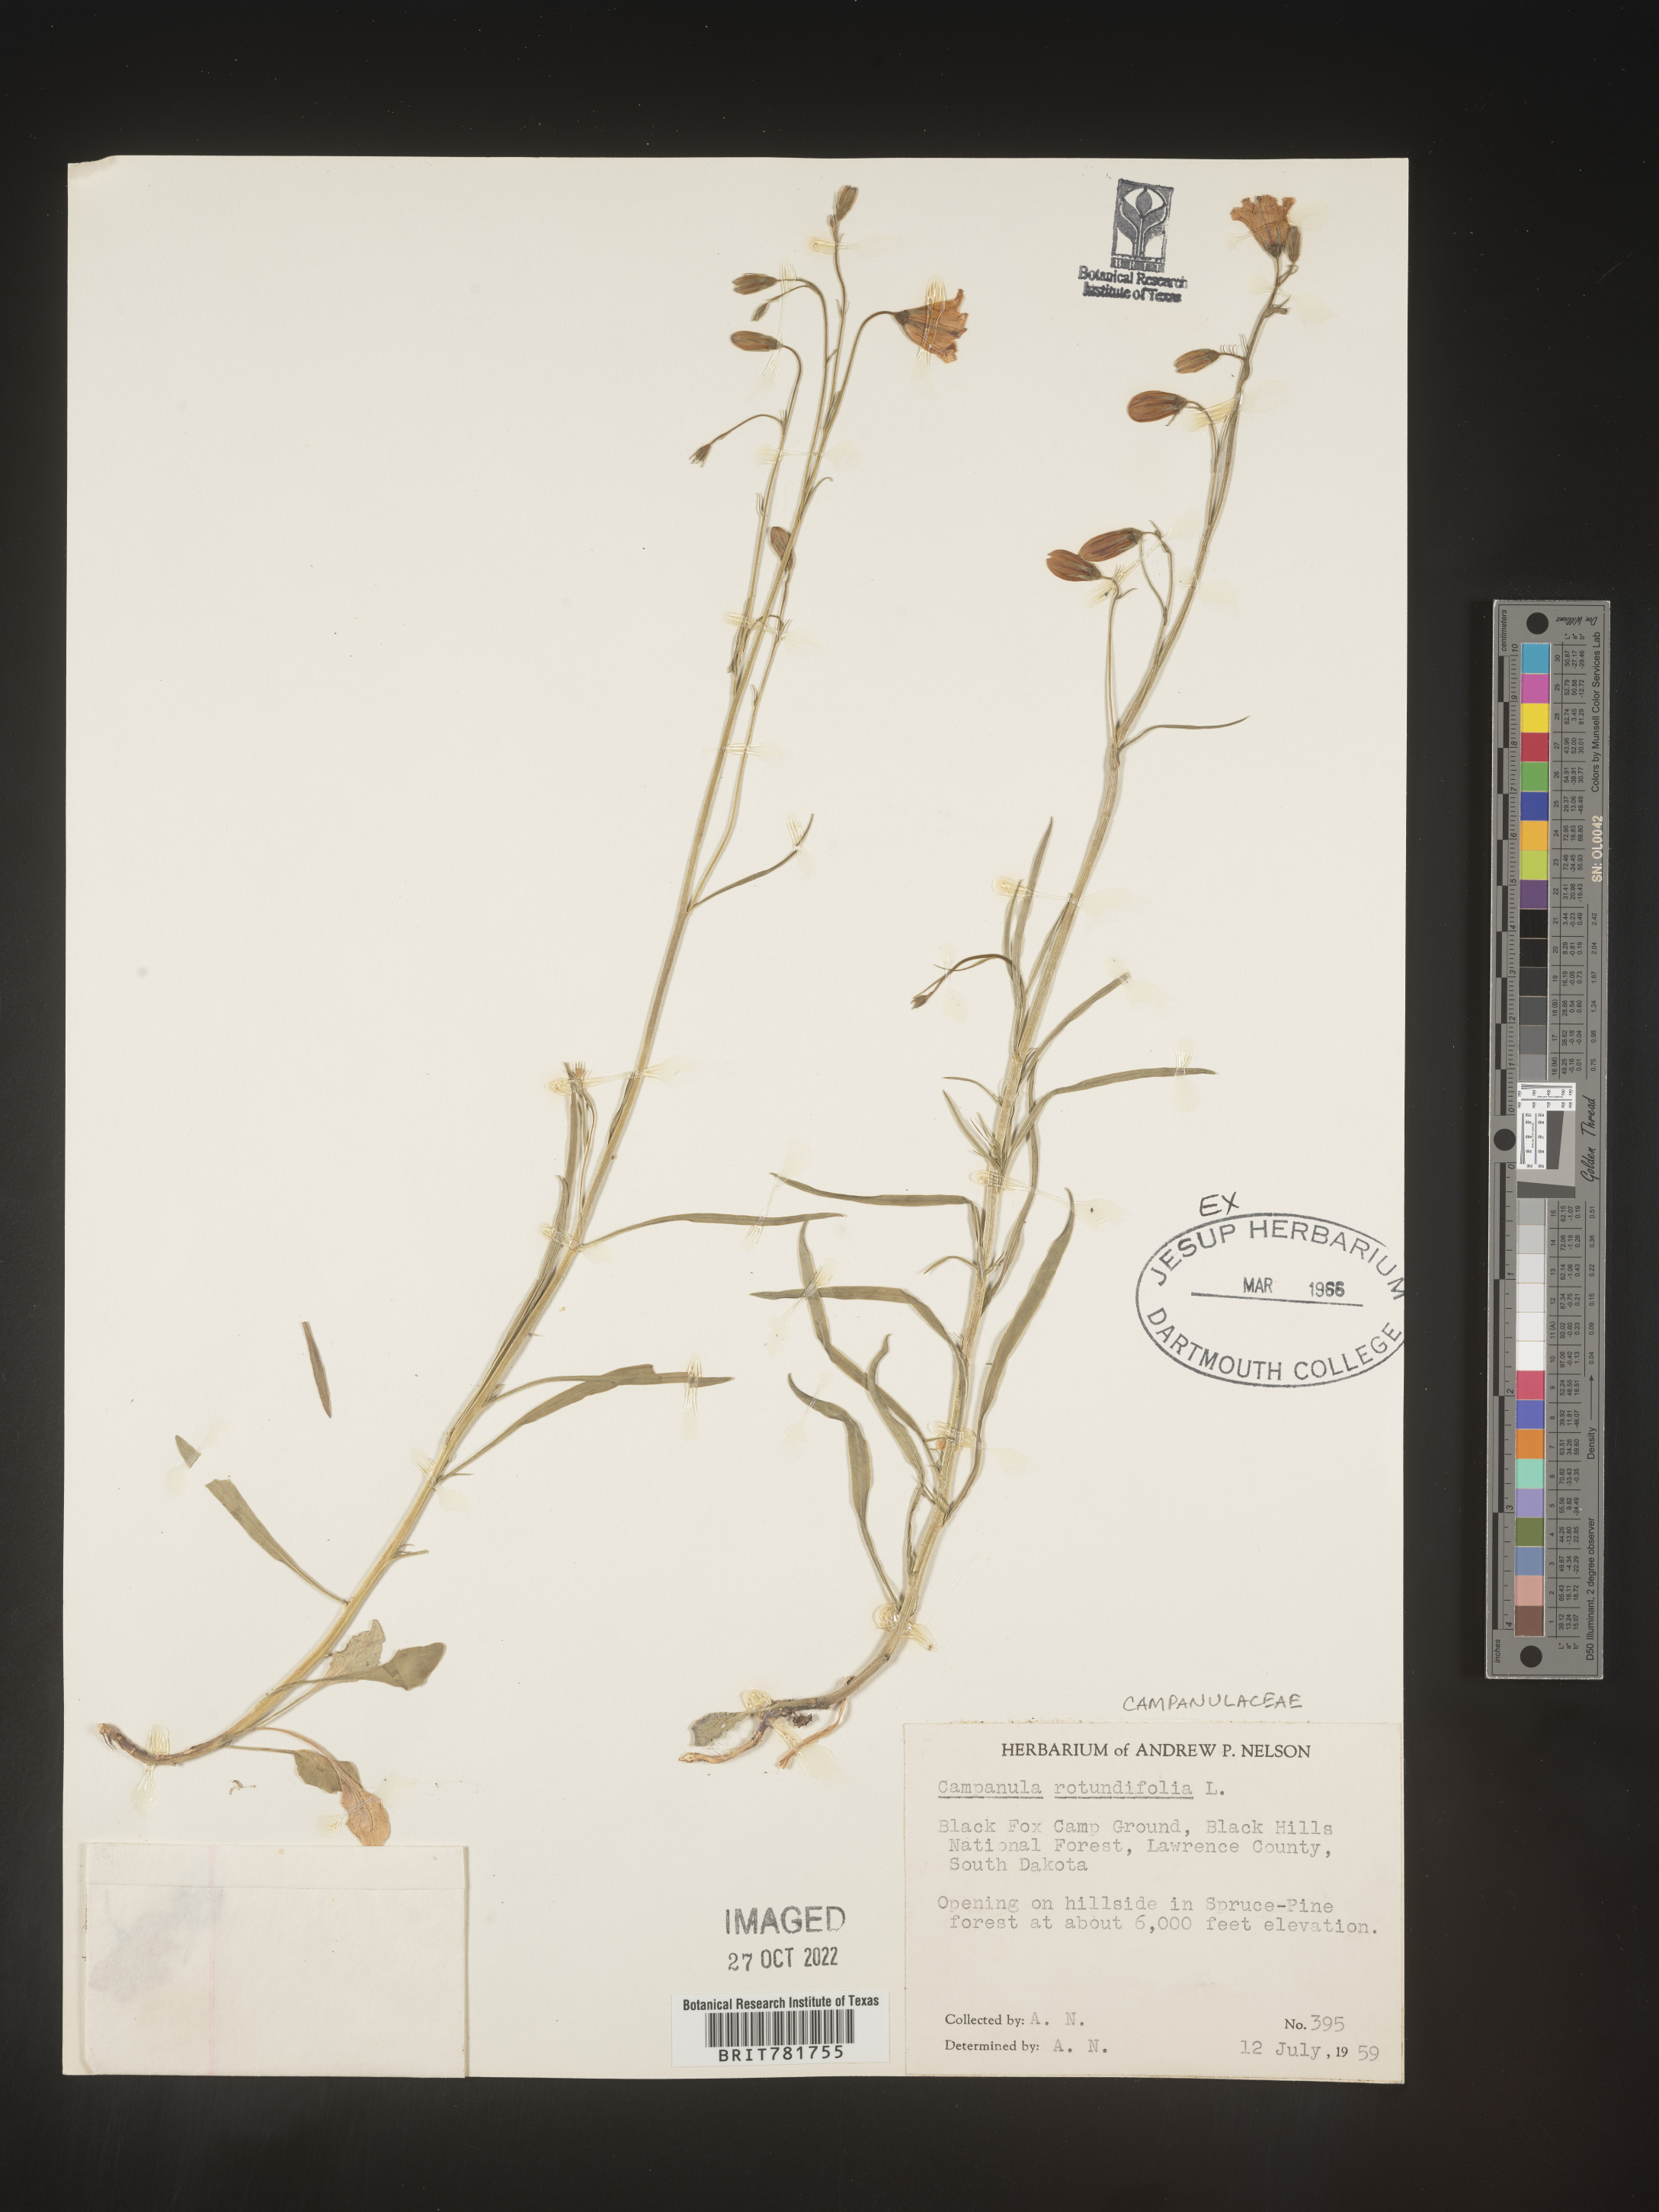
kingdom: Plantae
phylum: Tracheophyta
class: Magnoliopsida
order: Asterales
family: Campanulaceae
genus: Campanula
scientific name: Campanula rotundifolia
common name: Harebell
